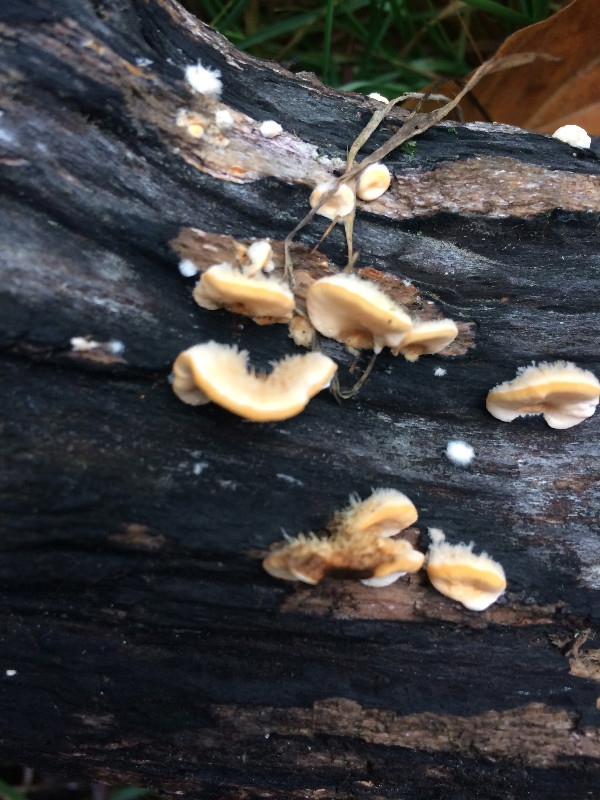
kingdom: Fungi
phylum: Basidiomycota
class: Agaricomycetes
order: Russulales
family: Stereaceae
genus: Stereum
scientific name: Stereum hirsutum
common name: håret lædersvamp
